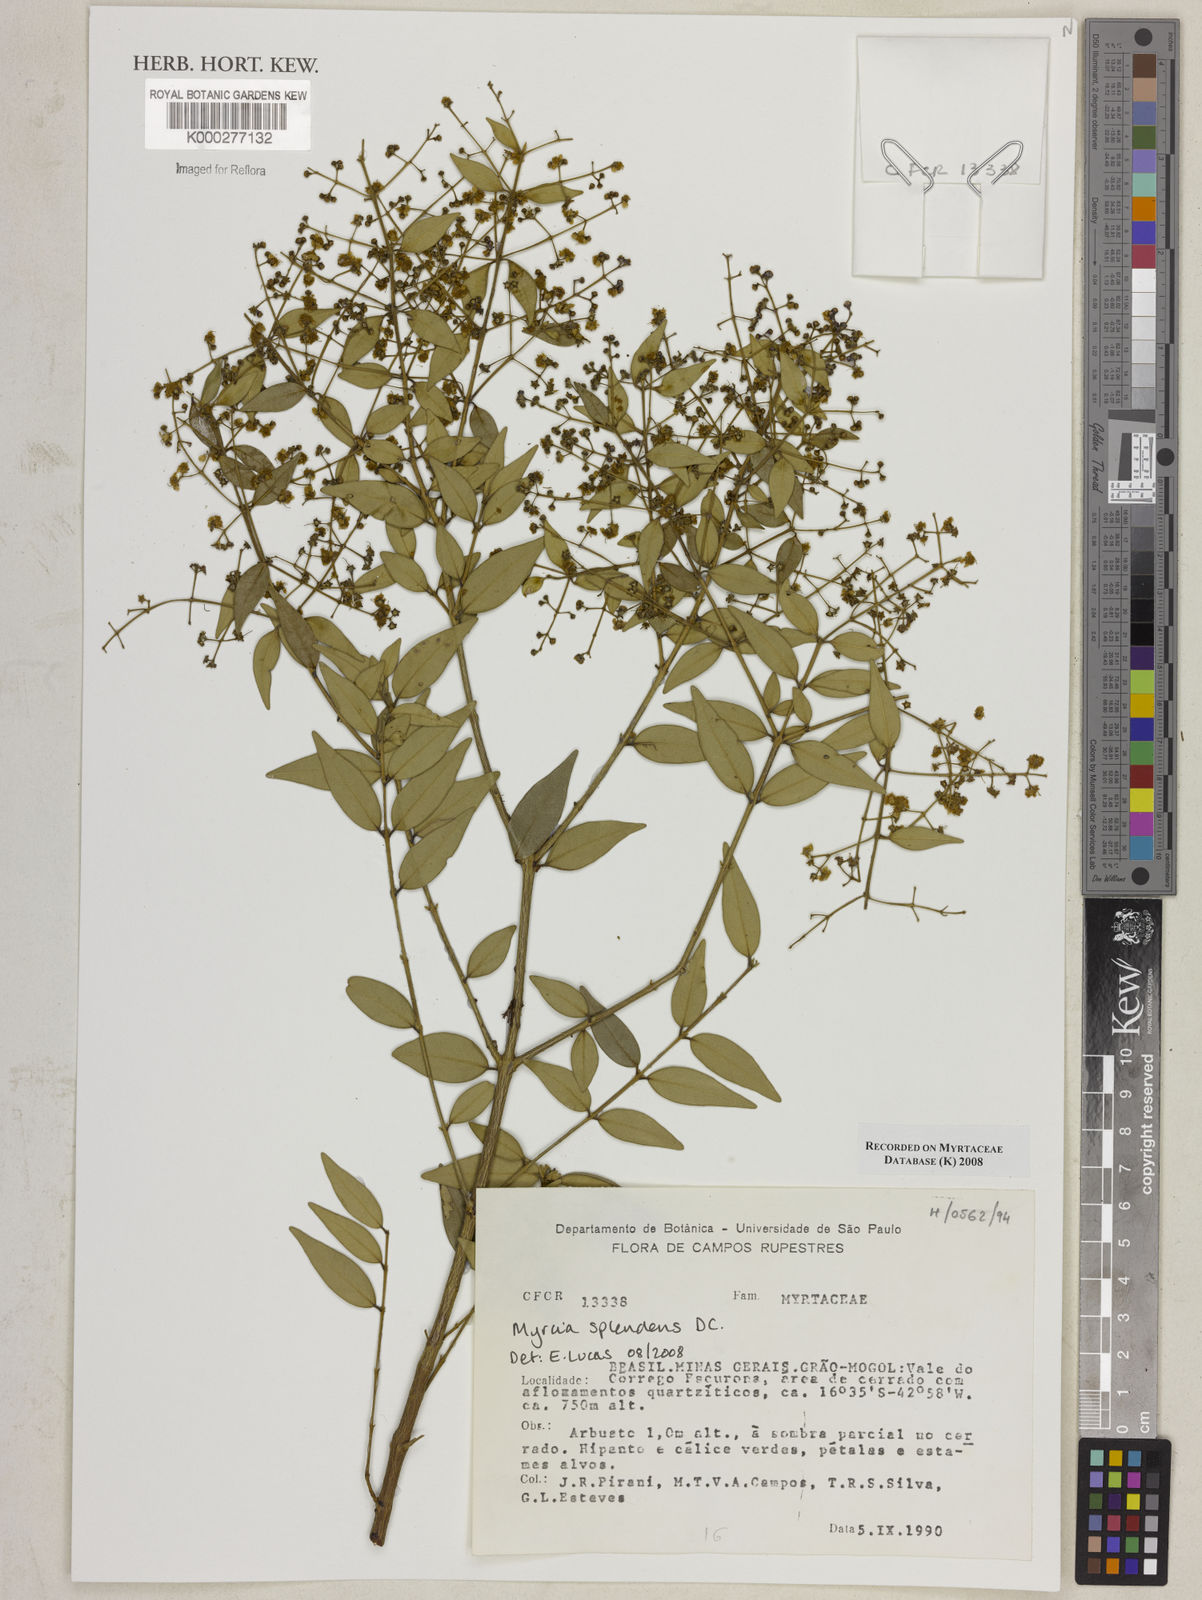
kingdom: Plantae
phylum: Tracheophyta
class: Magnoliopsida
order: Myrtales
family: Myrtaceae
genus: Myrcia
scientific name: Myrcia splendens
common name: Surinam cherry
